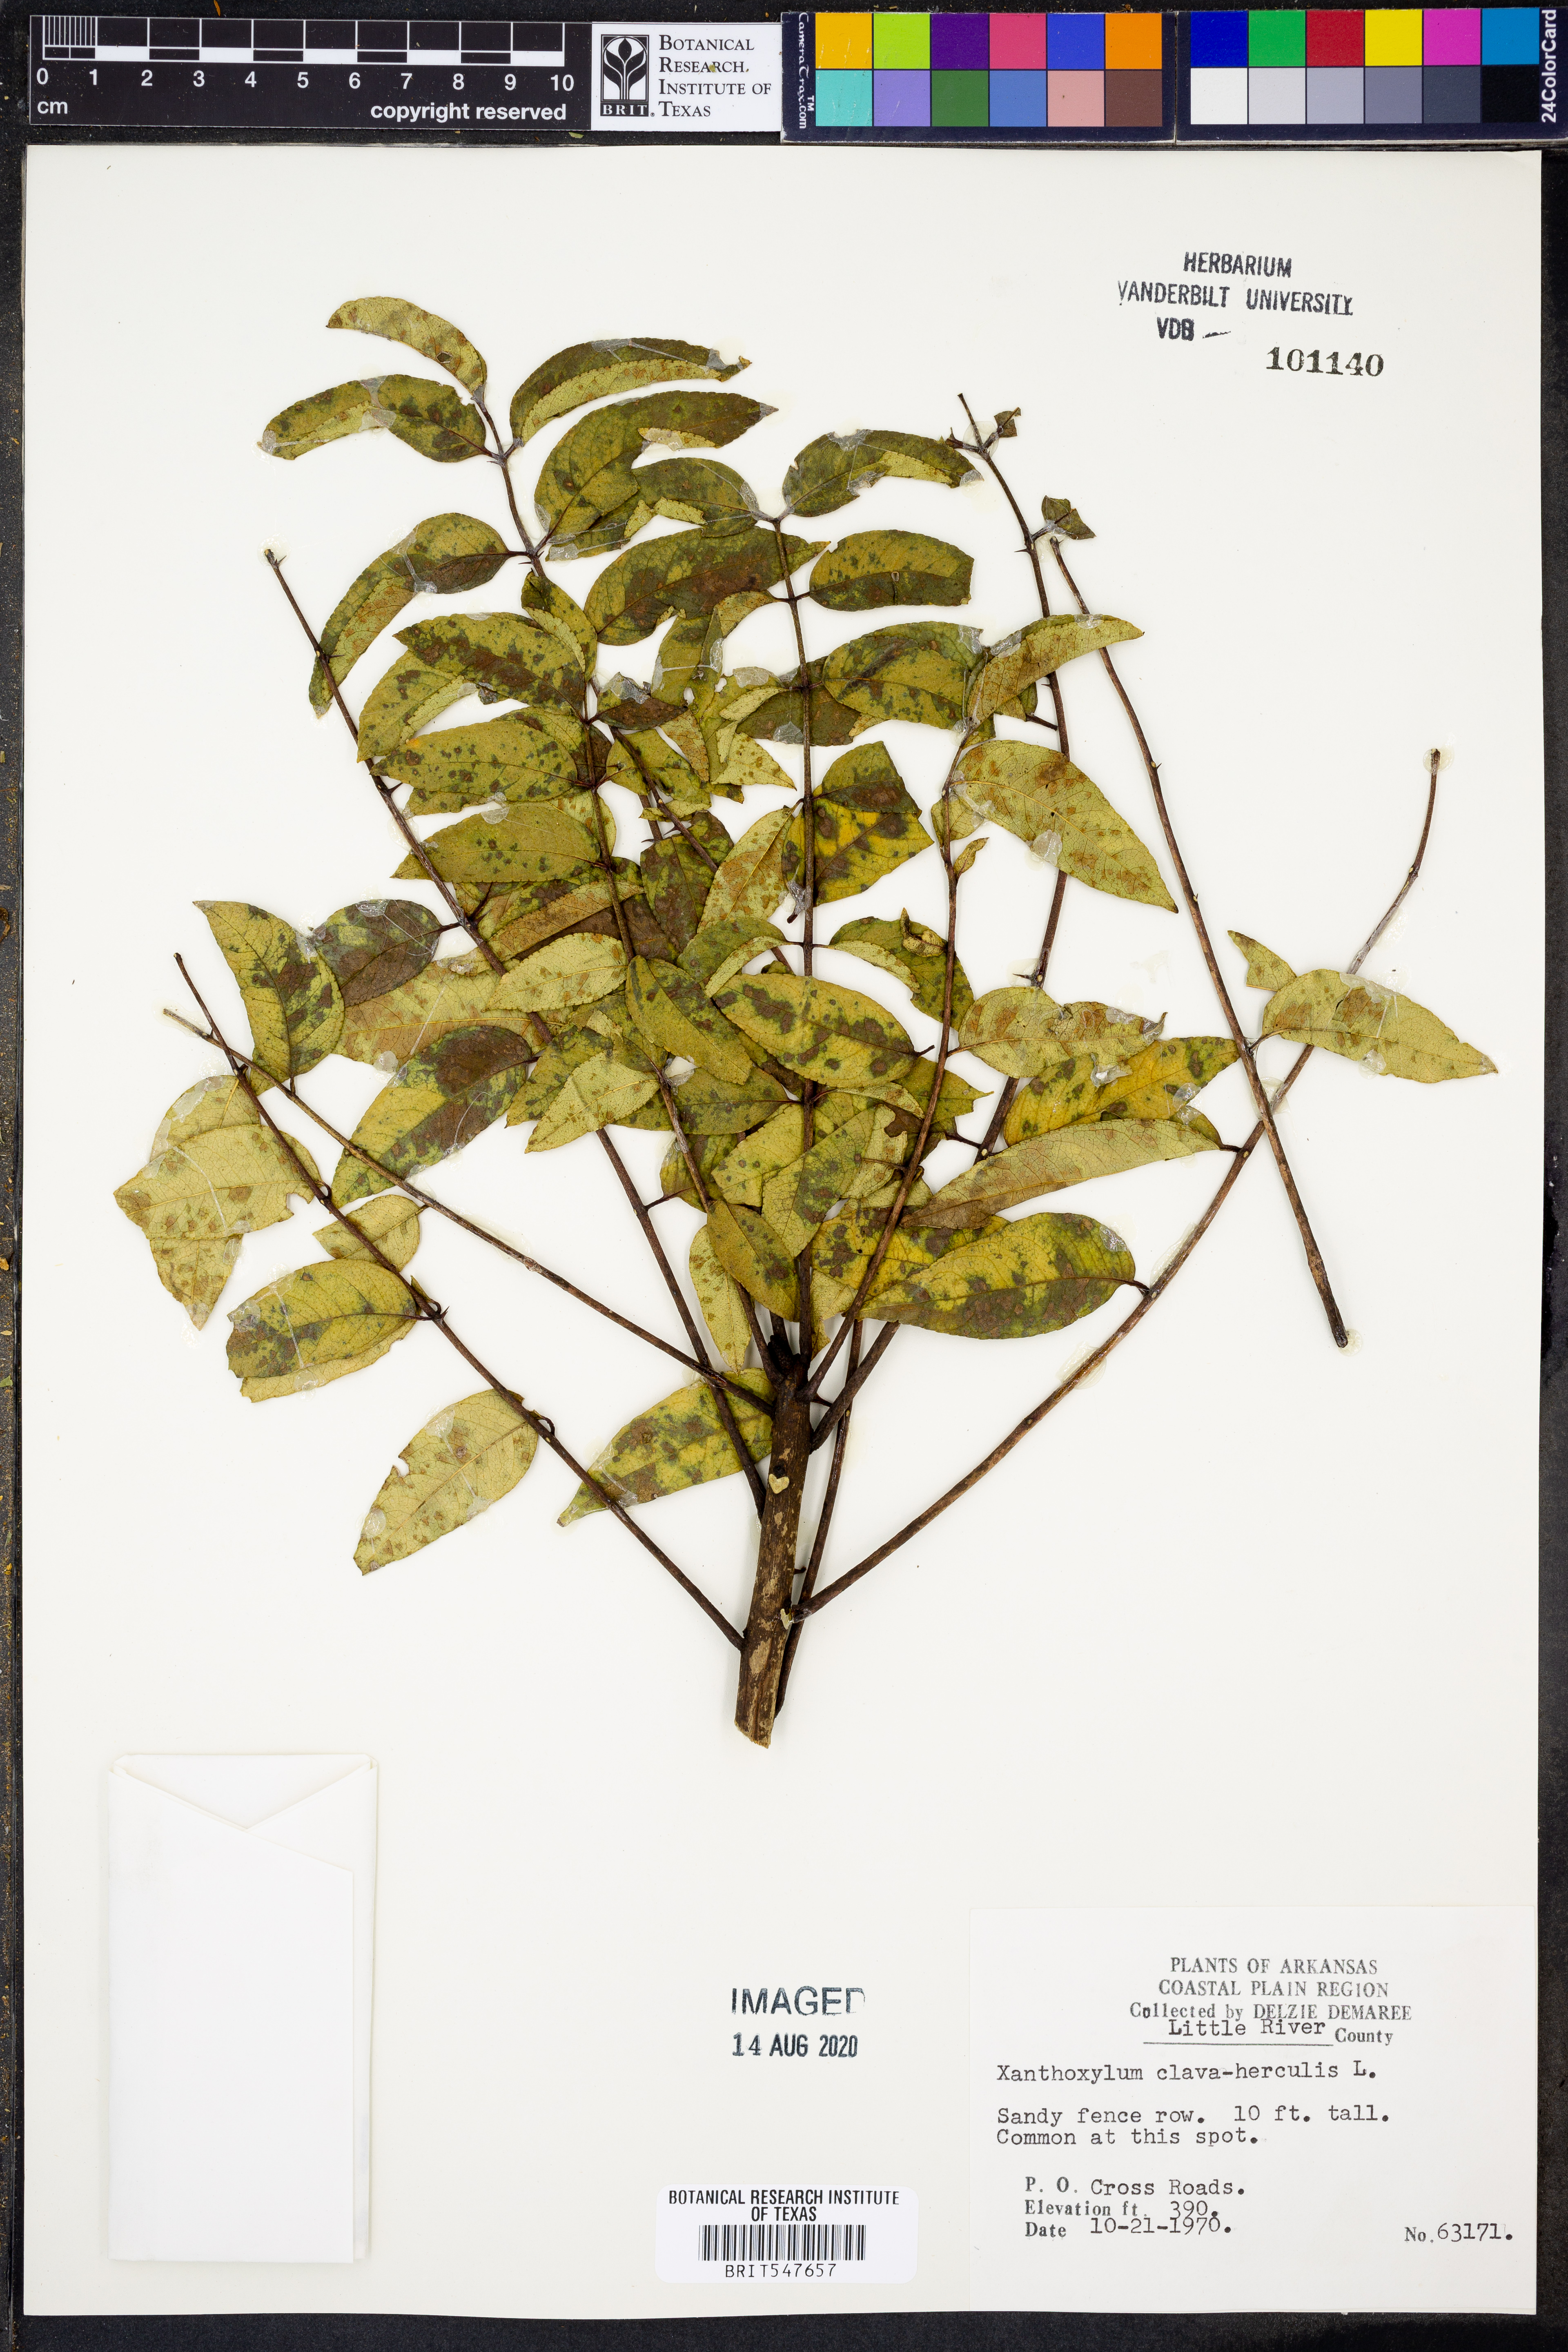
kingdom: Plantae
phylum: Tracheophyta
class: Magnoliopsida
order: Sapindales
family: Rutaceae
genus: Zanthoxylum
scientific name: Zanthoxylum avicennae
